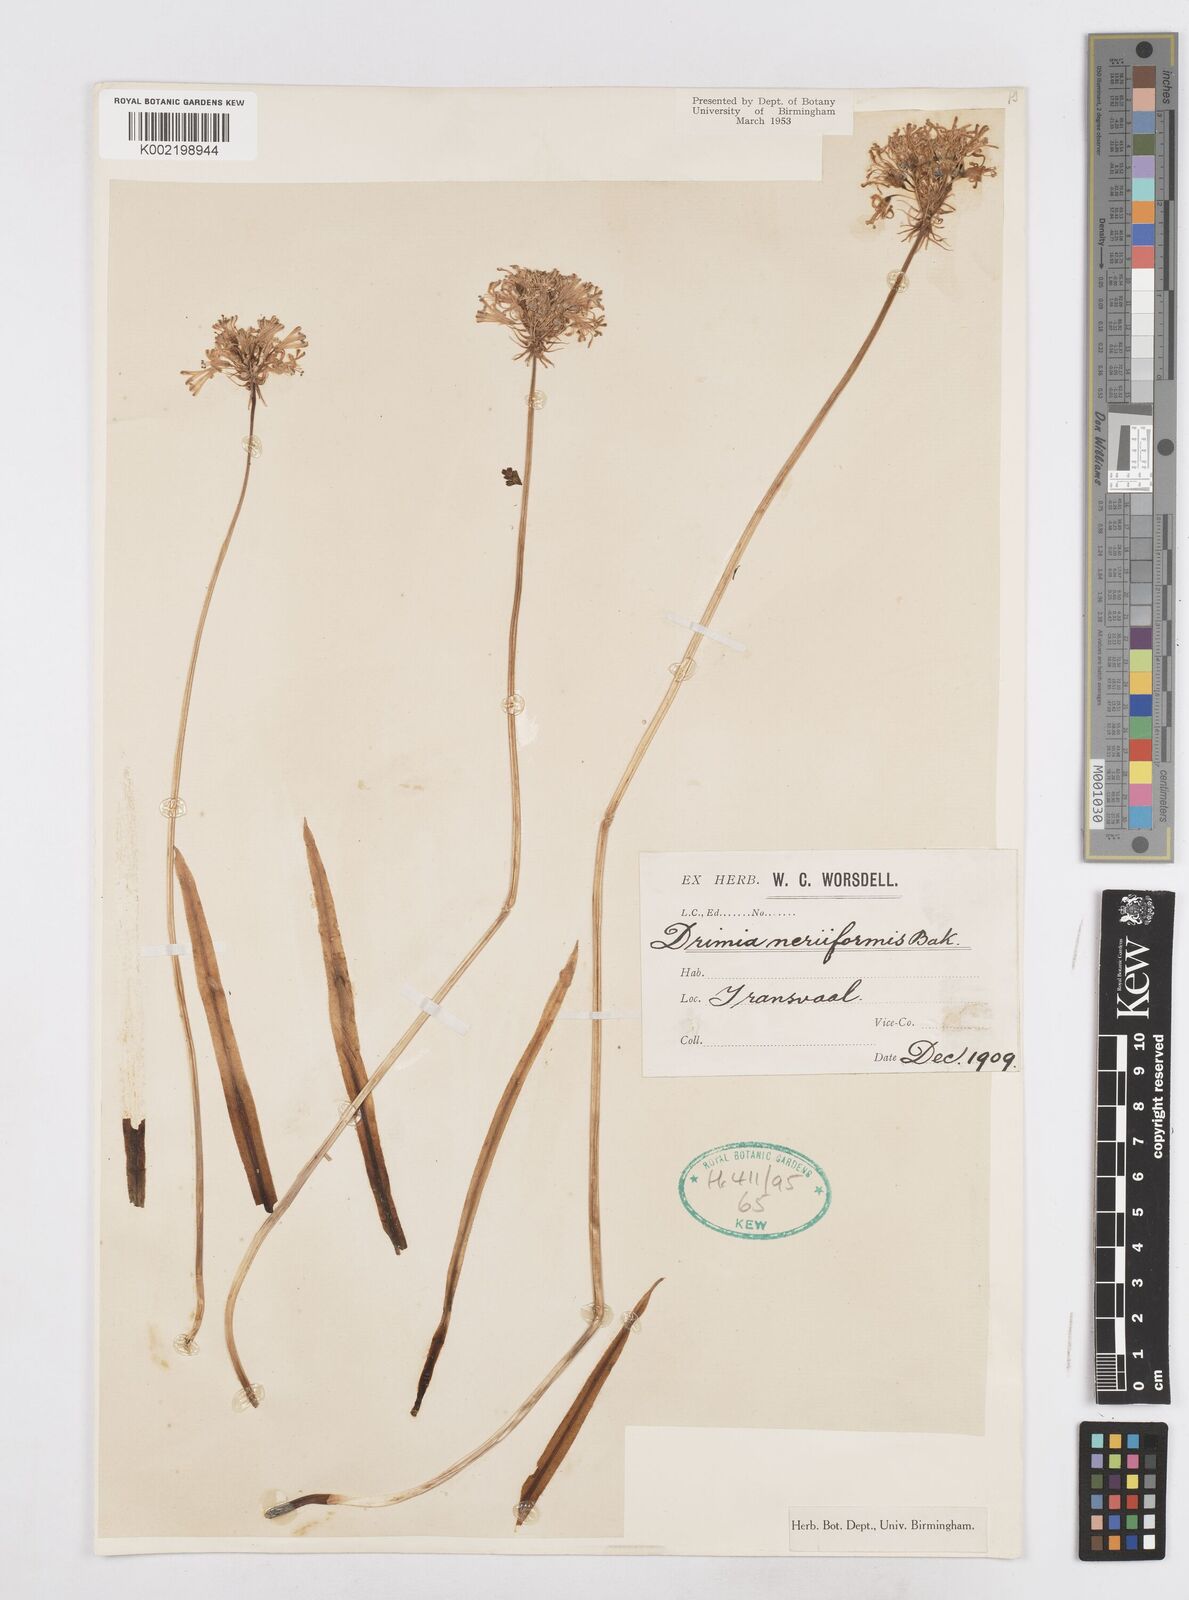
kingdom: Plantae
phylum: Tracheophyta
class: Liliopsida
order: Asparagales
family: Asparagaceae
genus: Drimia
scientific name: Drimia sphaerocephala
